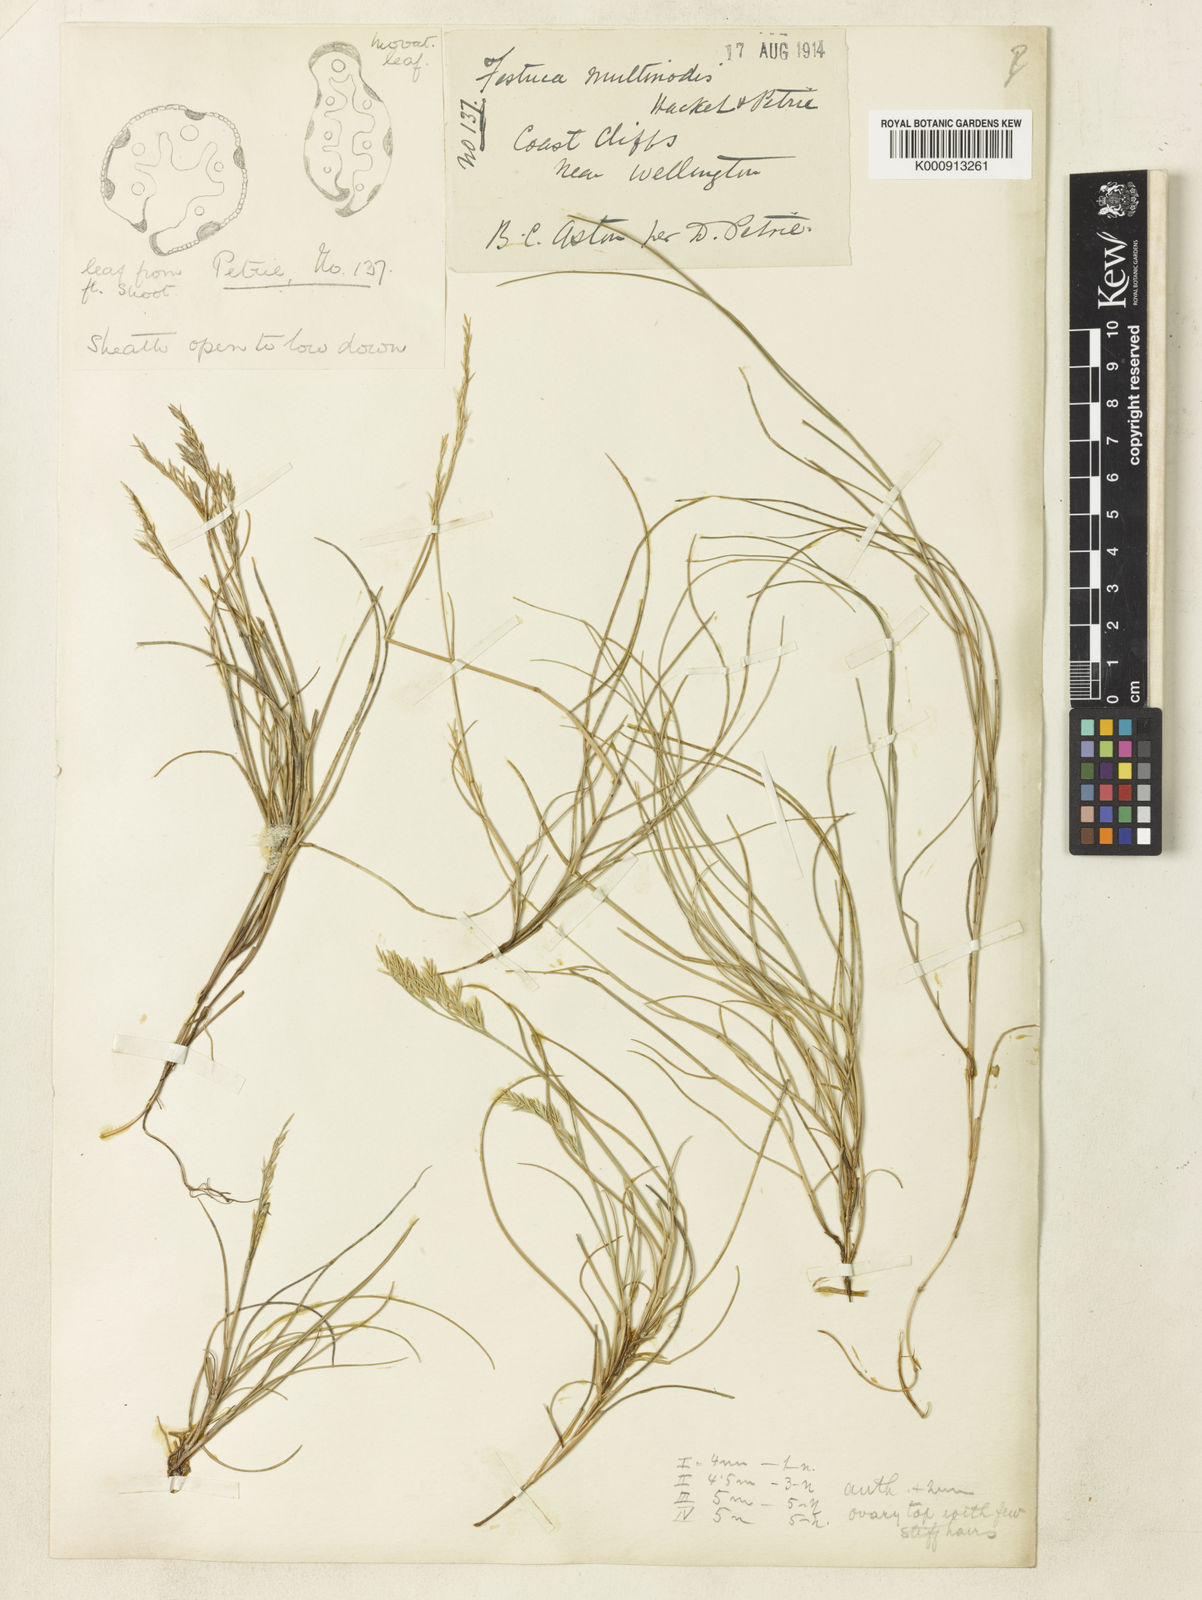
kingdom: Plantae
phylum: Tracheophyta
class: Liliopsida
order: Poales
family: Poaceae
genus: Festuca
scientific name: Festuca multinodis
